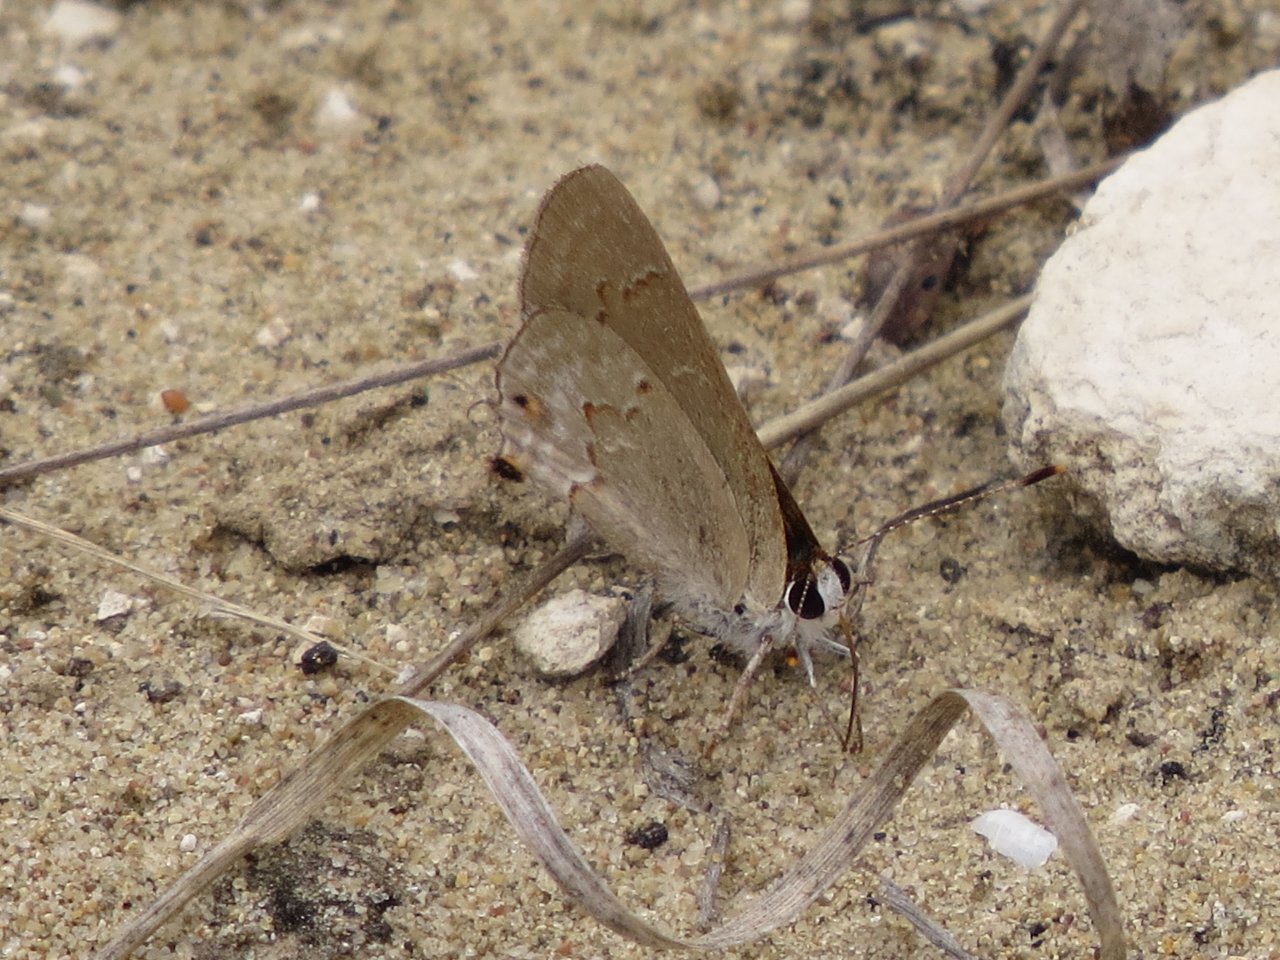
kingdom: Animalia
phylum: Arthropoda
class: Insecta
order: Lepidoptera
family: Lycaenidae
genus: Thecla
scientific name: Thecla rufofusca
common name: Red-crescent Scrub-Hairstreak
